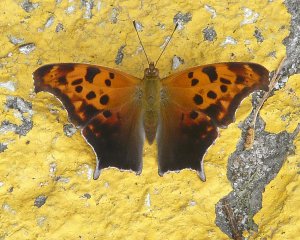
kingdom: Animalia
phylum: Arthropoda
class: Insecta
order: Lepidoptera
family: Nymphalidae
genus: Polygonia
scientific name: Polygonia interrogationis
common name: Question Mark
